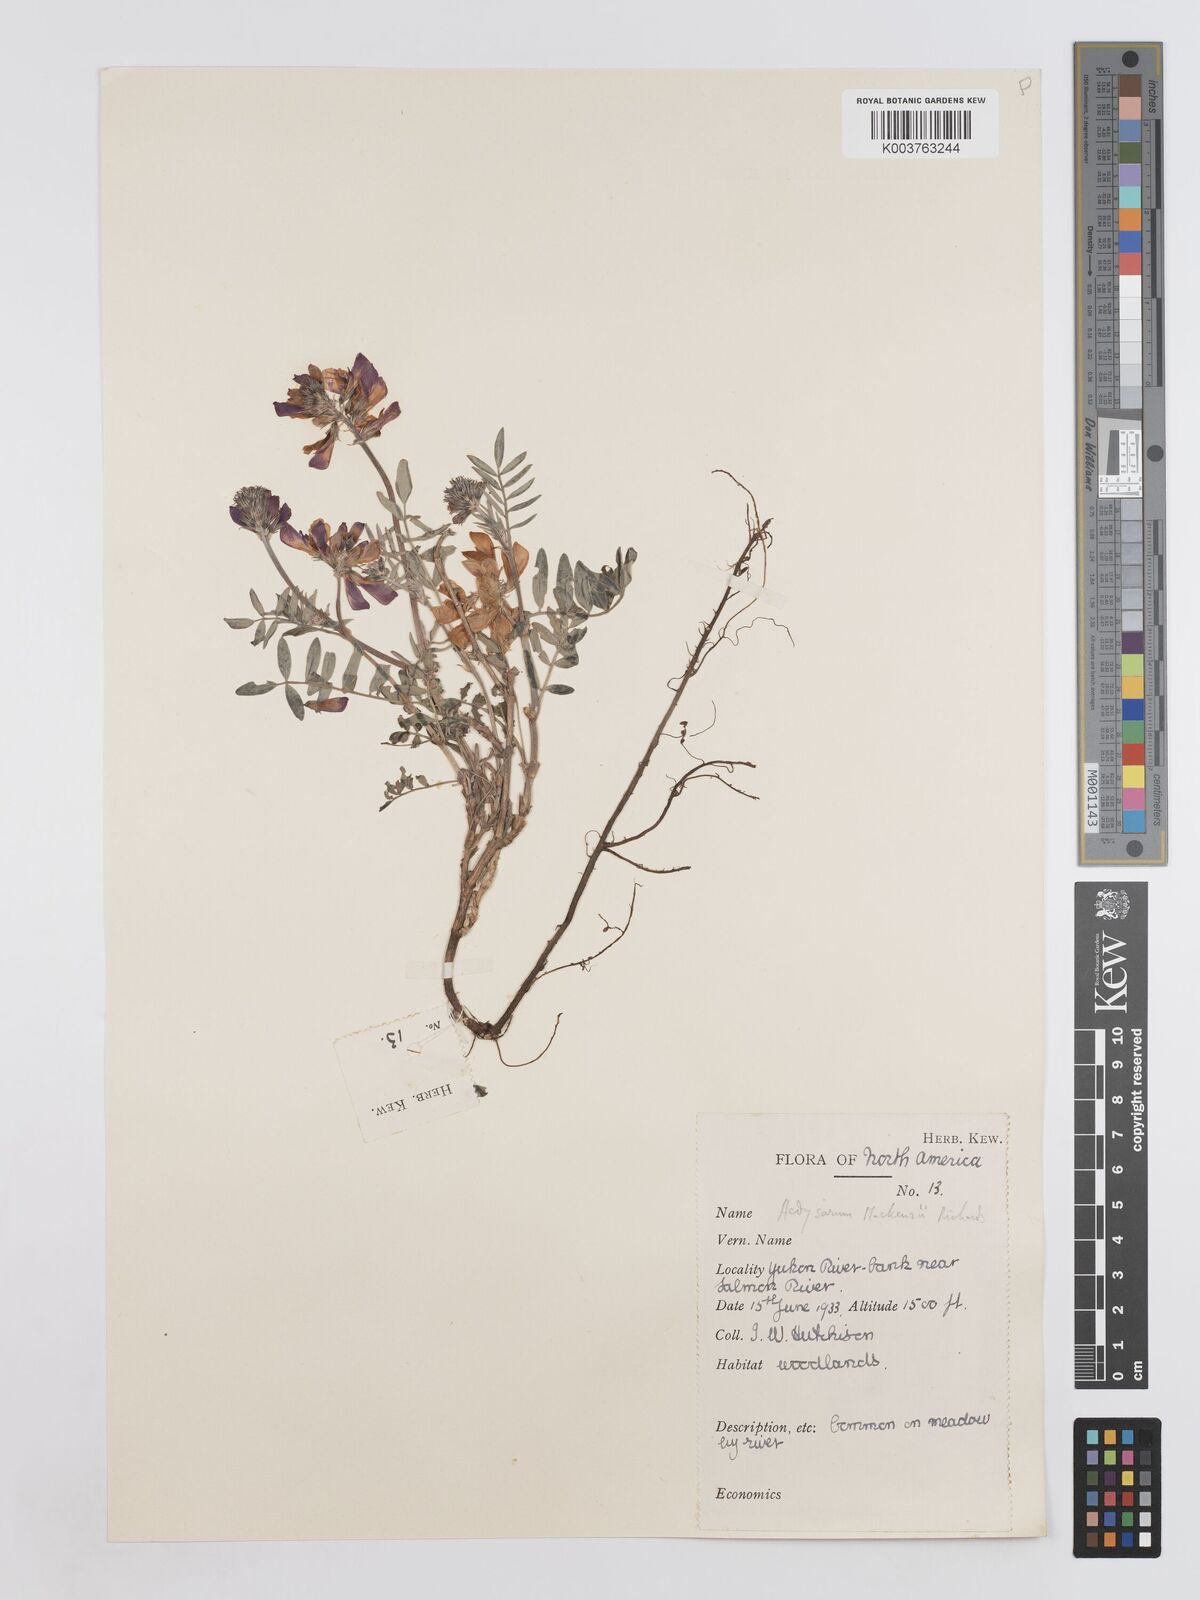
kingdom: Plantae
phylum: Tracheophyta
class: Magnoliopsida
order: Fabales
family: Fabaceae
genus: Hedysarum
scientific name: Hedysarum boreale
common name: Northern sweet-vetch
